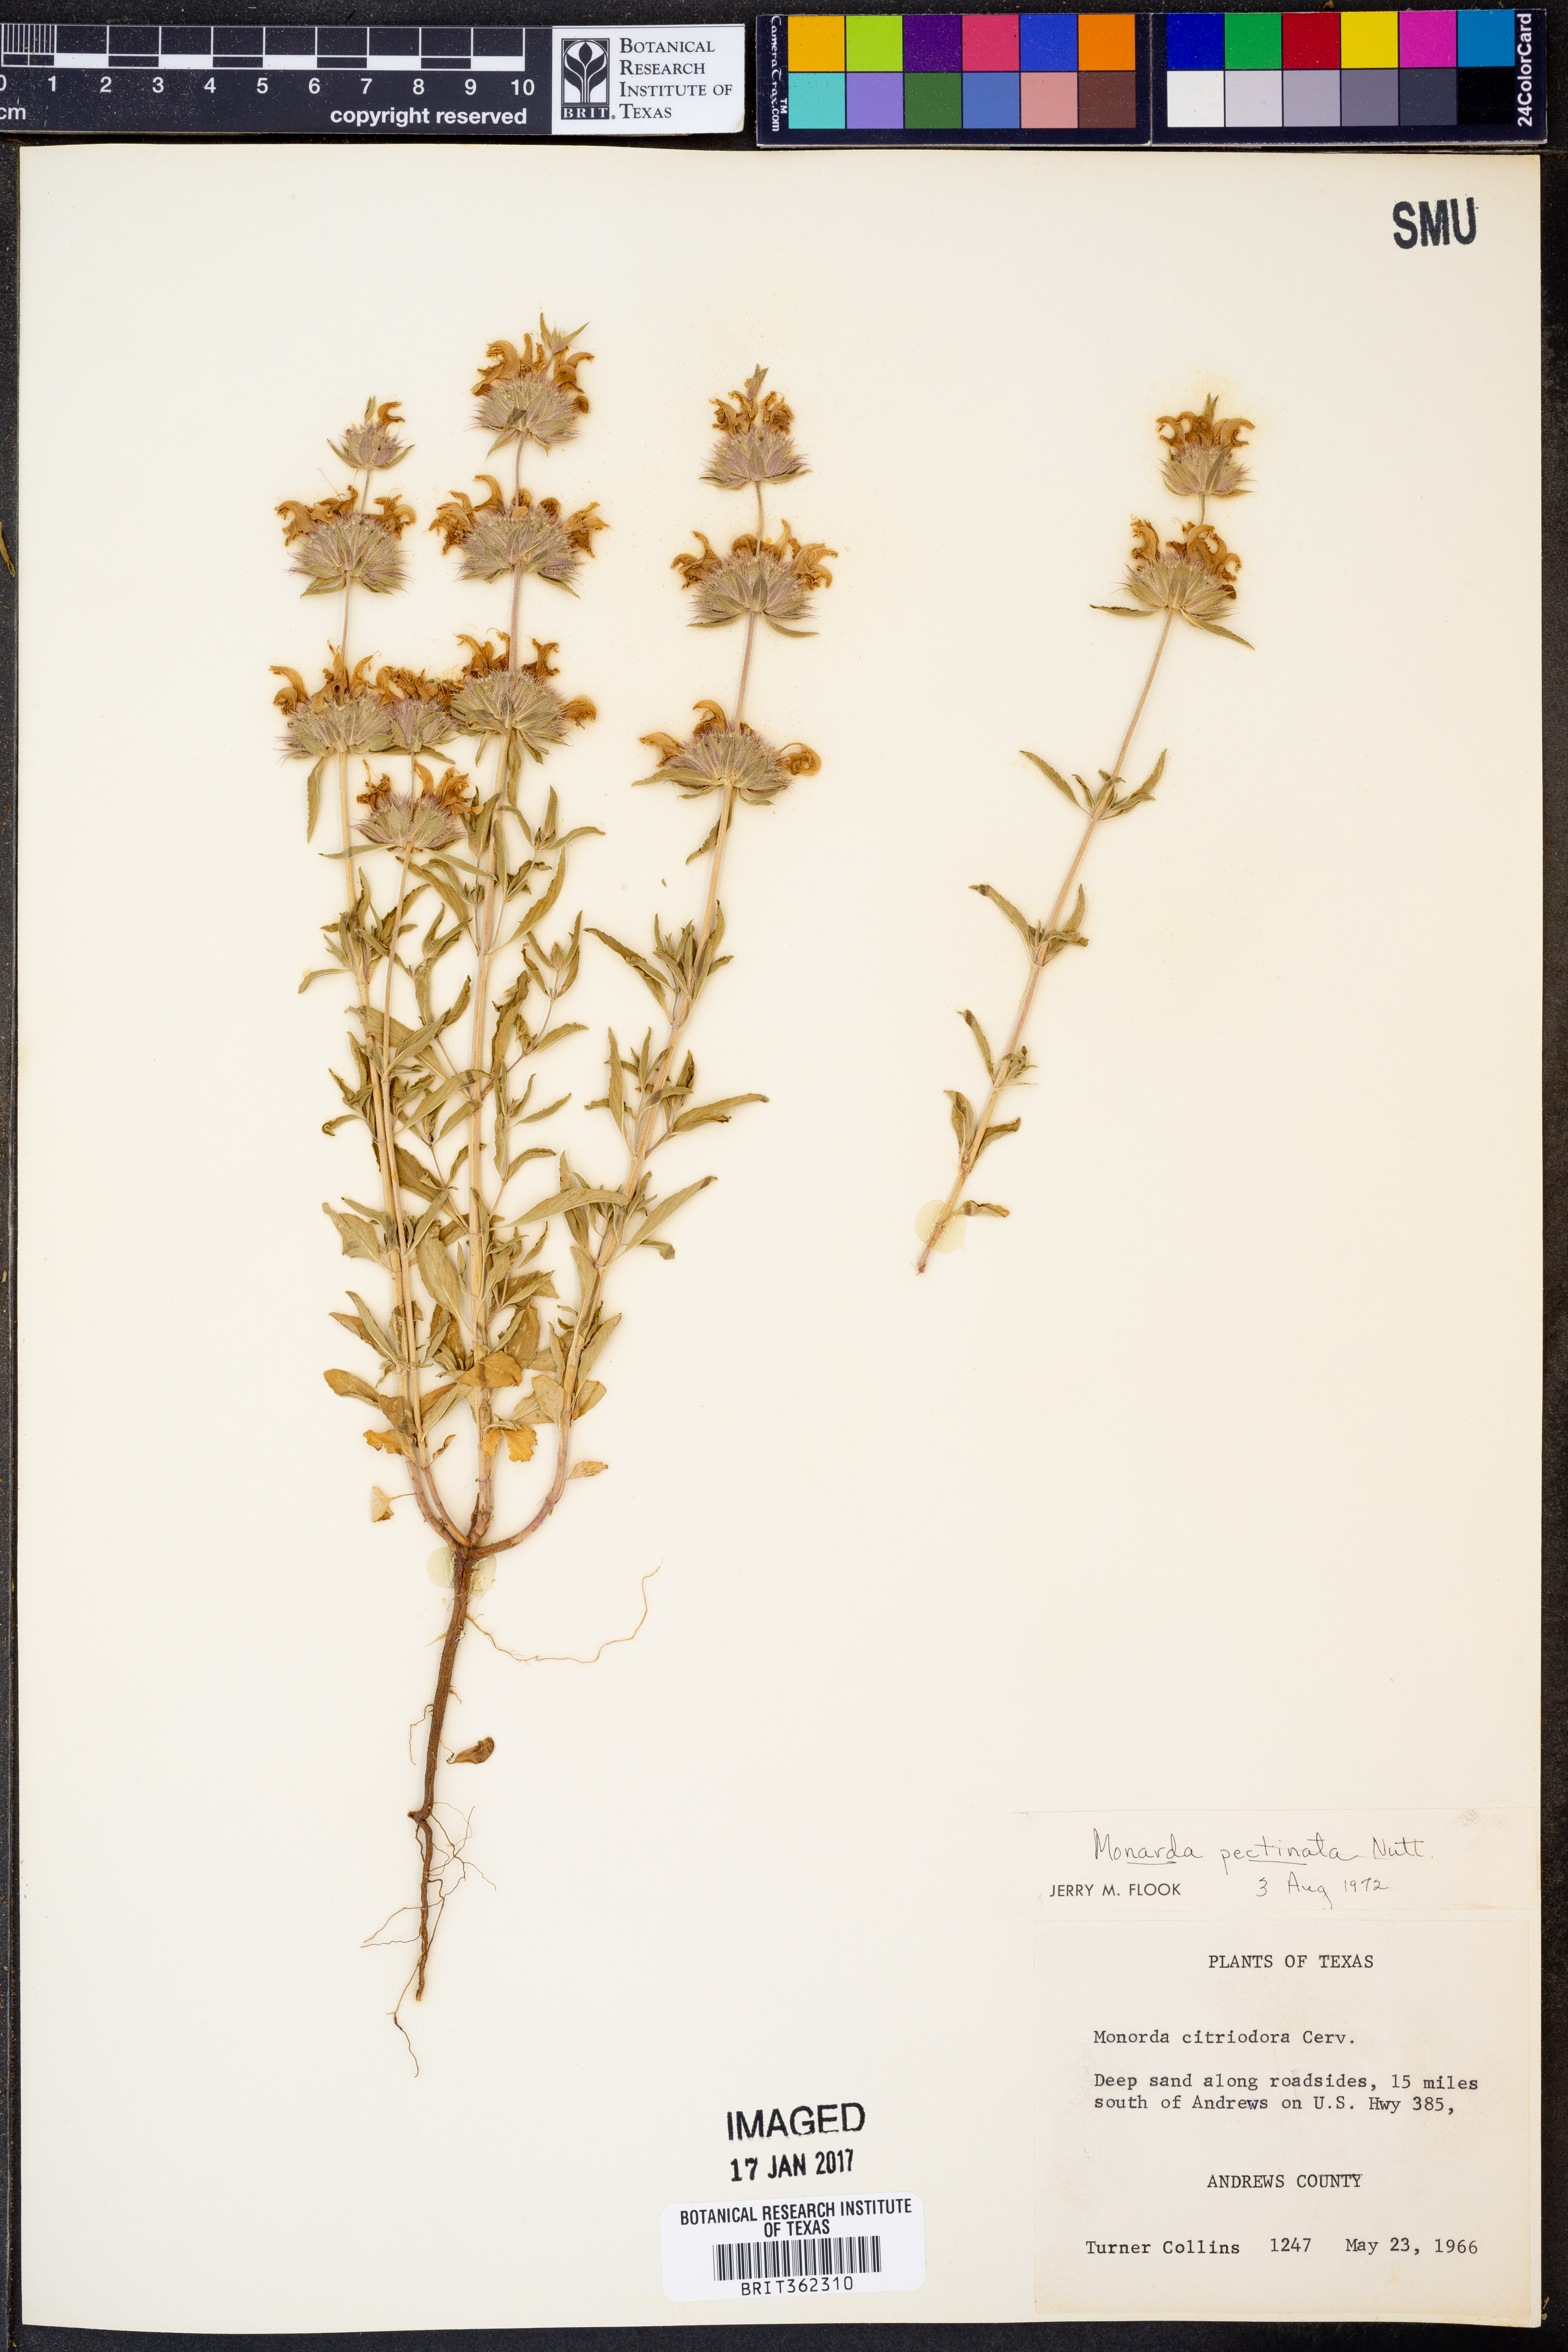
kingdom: Plantae
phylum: Tracheophyta
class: Magnoliopsida
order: Lamiales
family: Lamiaceae
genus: Monarda
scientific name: Monarda pectinata
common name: Plains beebalm
